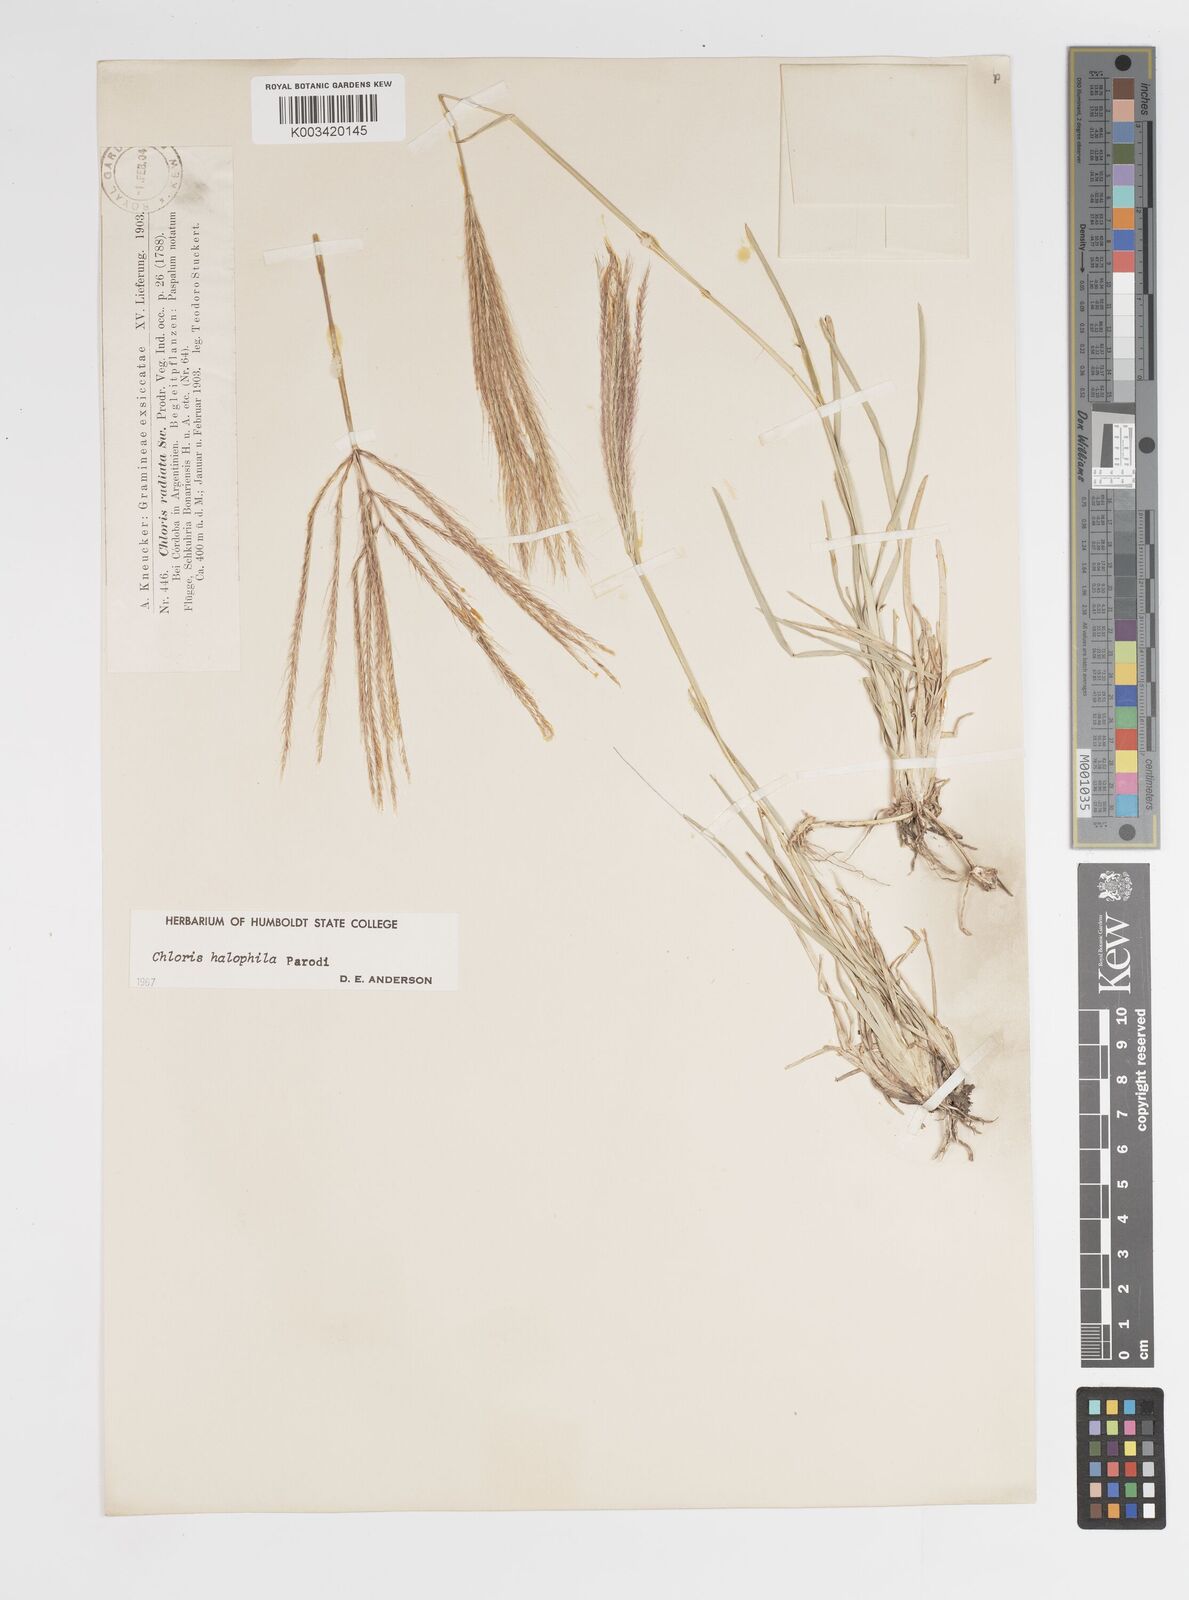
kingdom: Plantae
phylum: Tracheophyta
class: Liliopsida
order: Poales
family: Poaceae
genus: Chloris
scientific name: Chloris halophila
